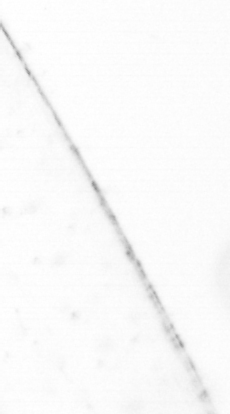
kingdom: Chromista
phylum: Ochrophyta
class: Bacillariophyceae
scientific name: Bacillariophyceae
